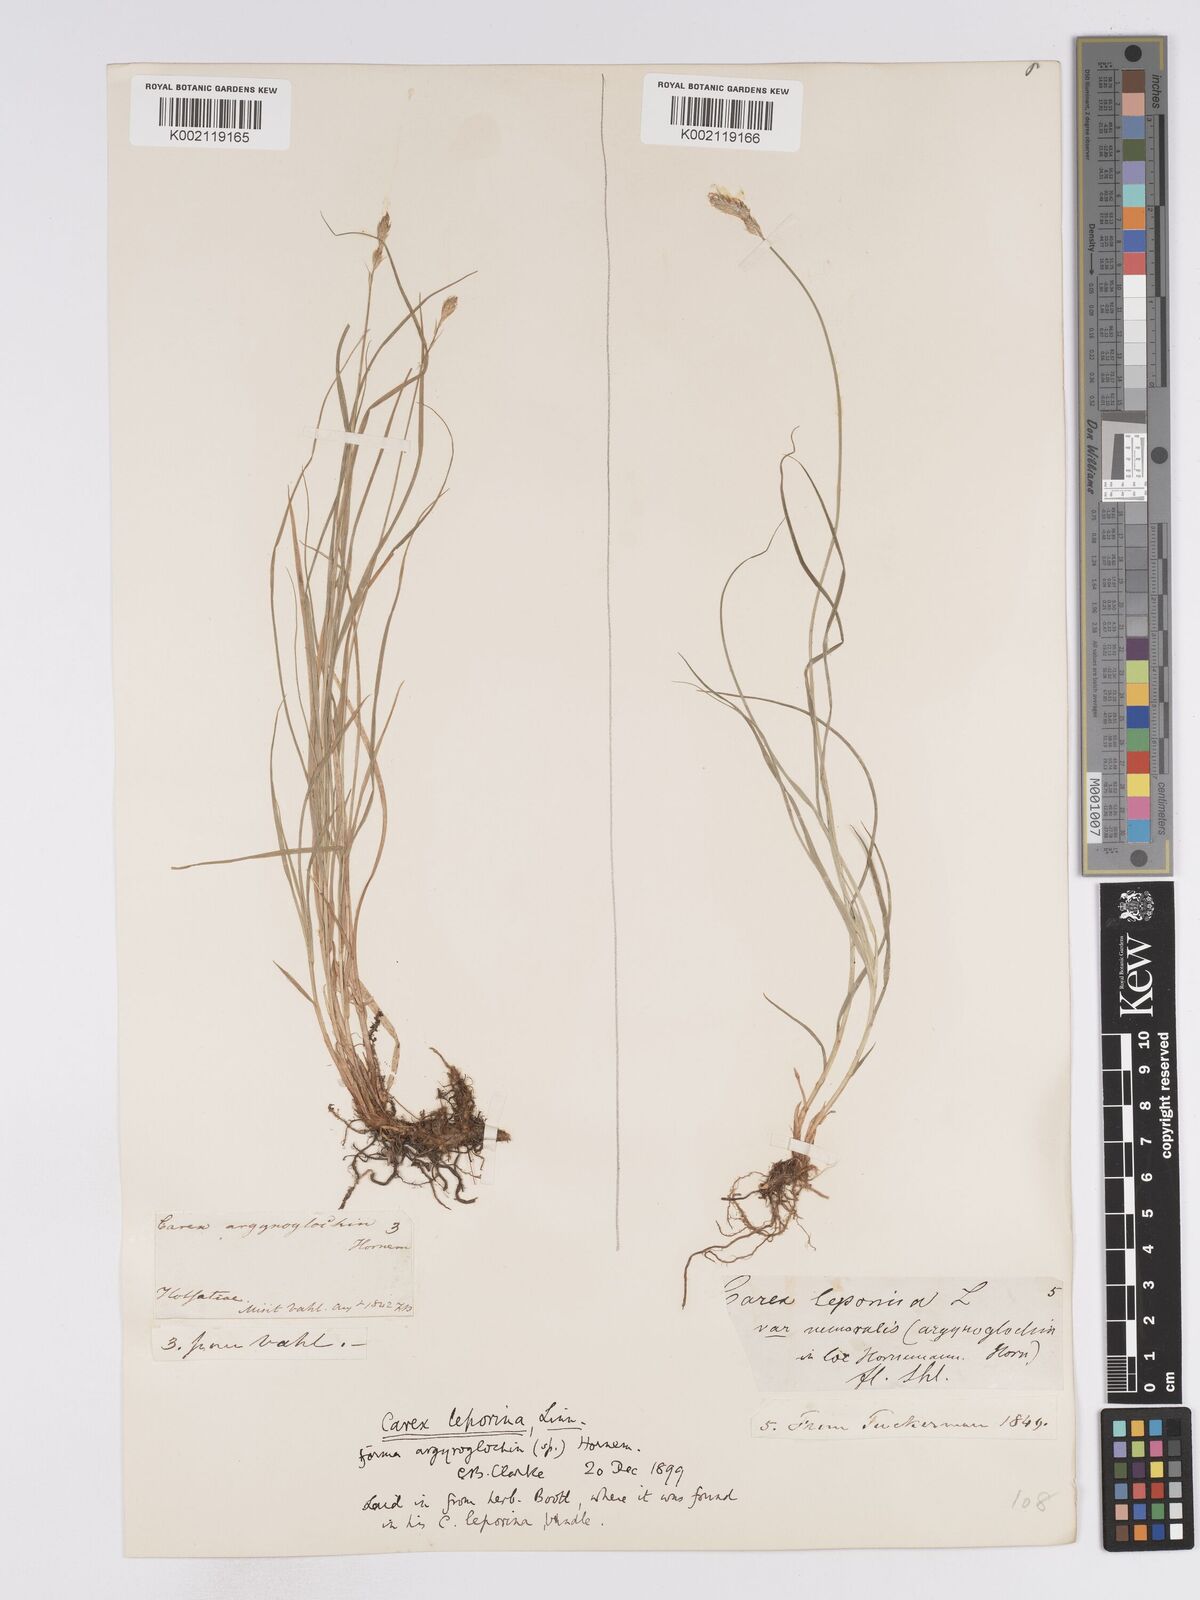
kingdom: Plantae
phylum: Tracheophyta
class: Liliopsida
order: Poales
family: Cyperaceae
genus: Carex
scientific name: Carex leporina
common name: Oval sedge
